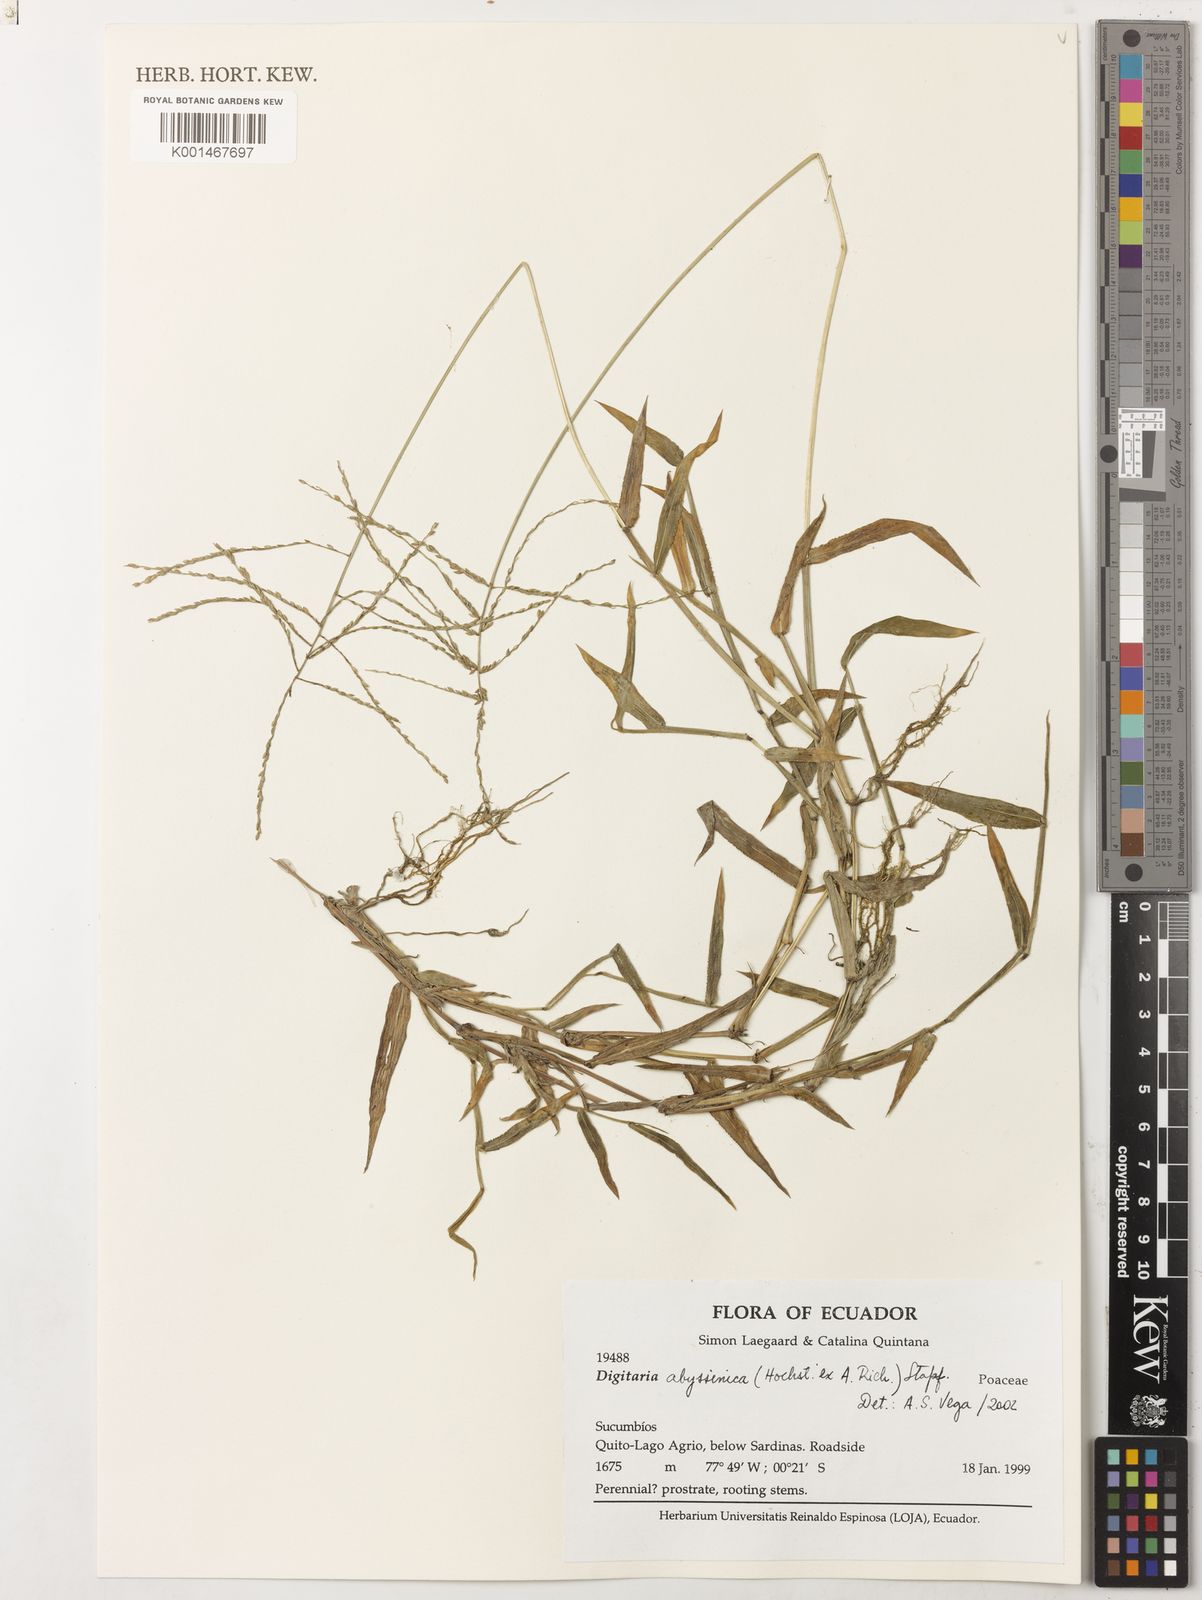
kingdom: Plantae
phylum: Tracheophyta
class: Liliopsida
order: Poales
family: Poaceae
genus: Digitaria
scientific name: Digitaria abyssinica
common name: African couchgrass
